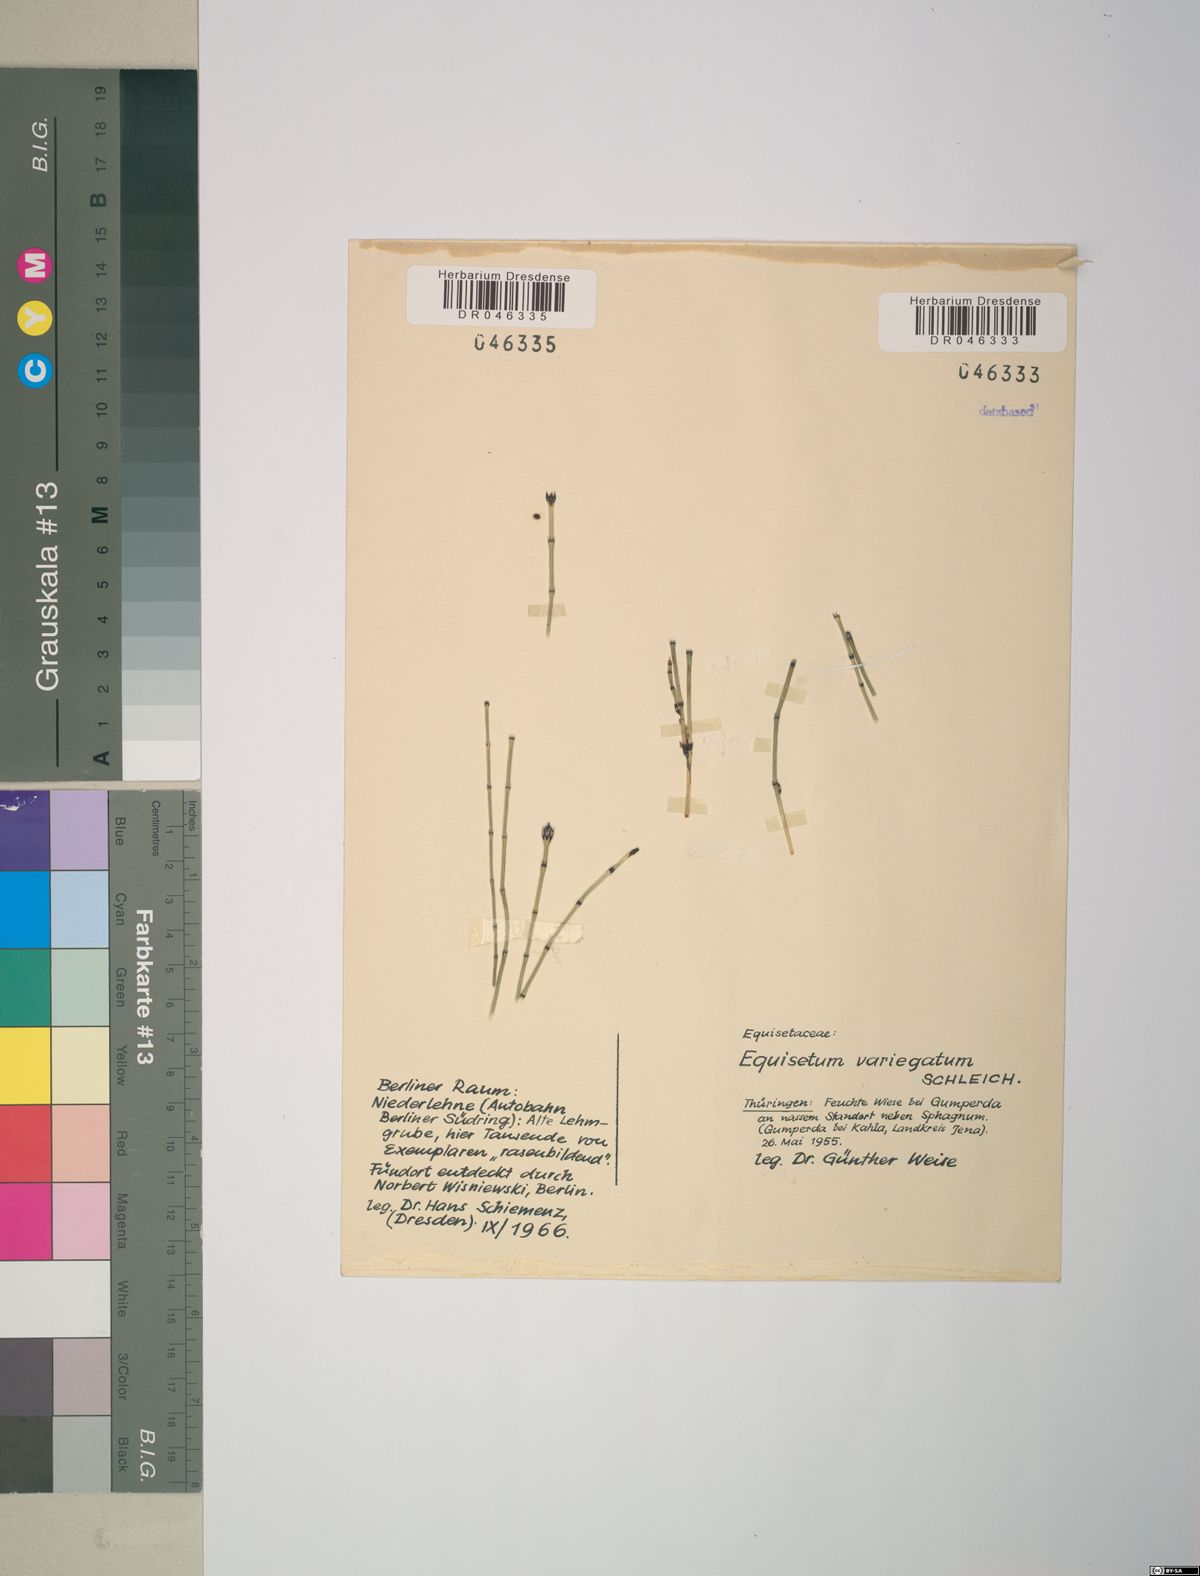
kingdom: Plantae
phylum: Tracheophyta
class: Polypodiopsida
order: Equisetales
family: Equisetaceae
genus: Equisetum
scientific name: Equisetum variegatum
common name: Variegated horsetail
